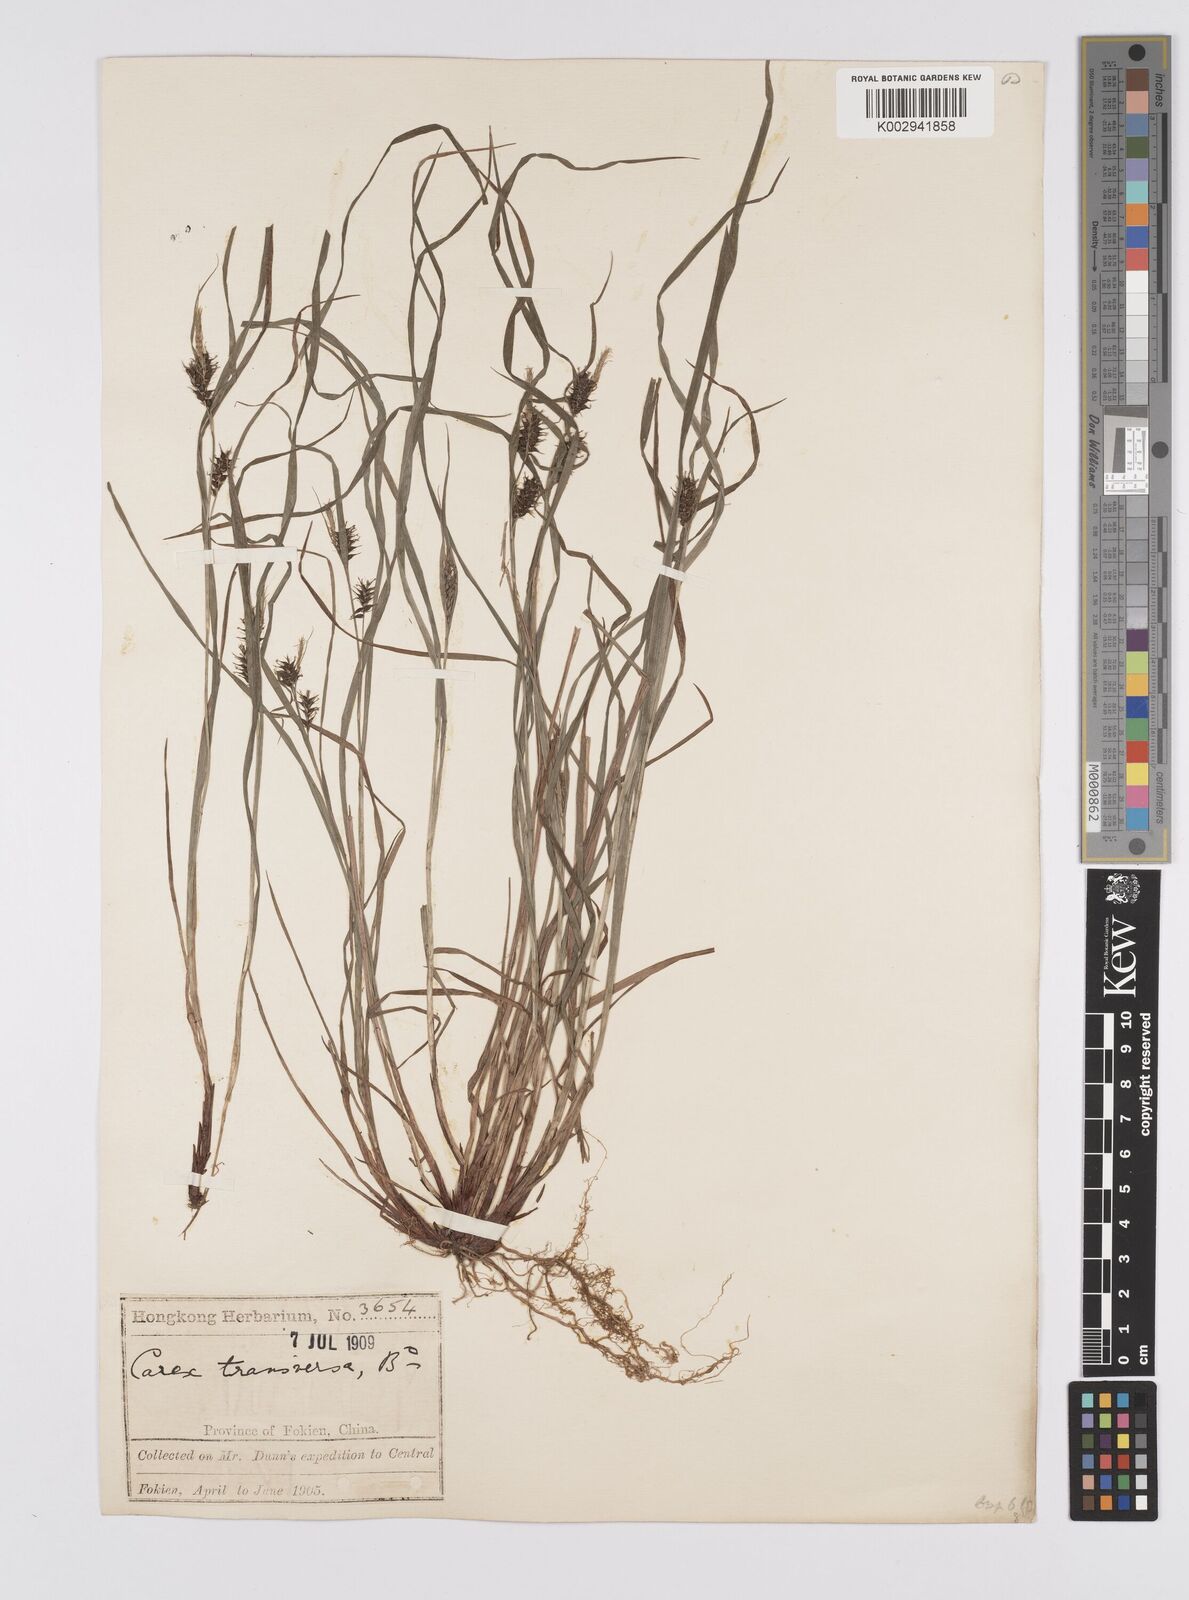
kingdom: Plantae
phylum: Tracheophyta
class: Liliopsida
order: Poales
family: Cyperaceae
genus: Carex
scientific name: Carex brownii
